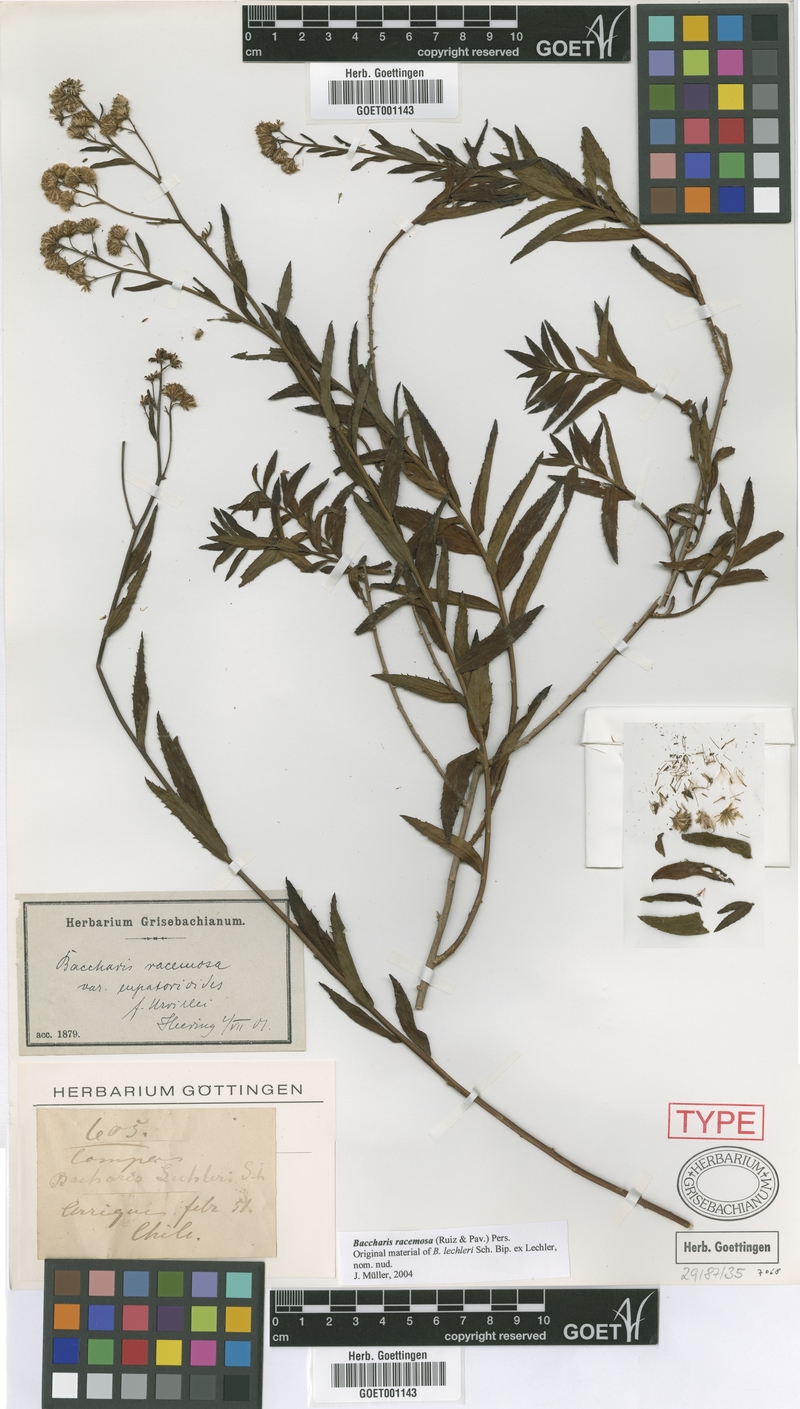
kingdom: Plantae
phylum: Tracheophyta
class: Magnoliopsida
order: Asterales
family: Asteraceae
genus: Baccharis
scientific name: Baccharis racemosa
